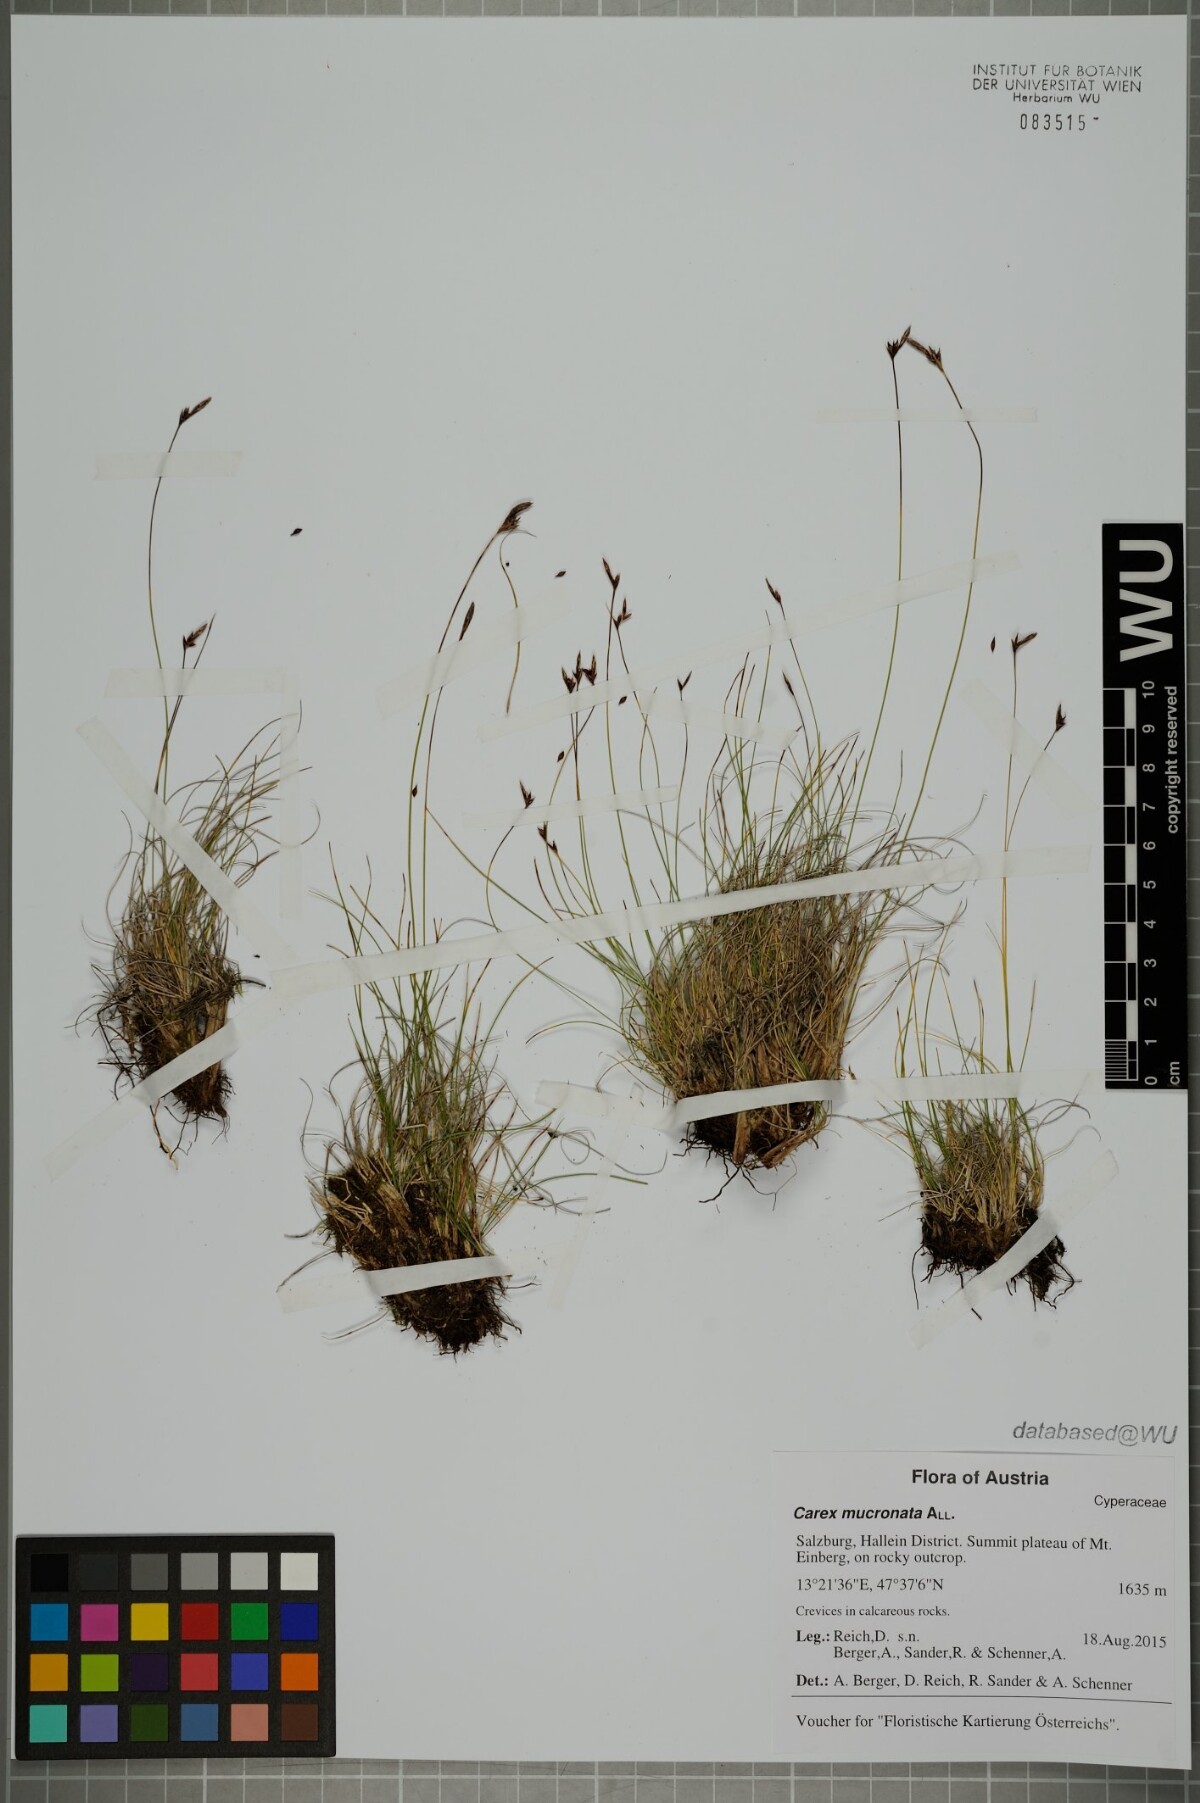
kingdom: Plantae
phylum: Tracheophyta
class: Liliopsida
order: Poales
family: Cyperaceae
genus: Carex
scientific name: Carex mucronata
